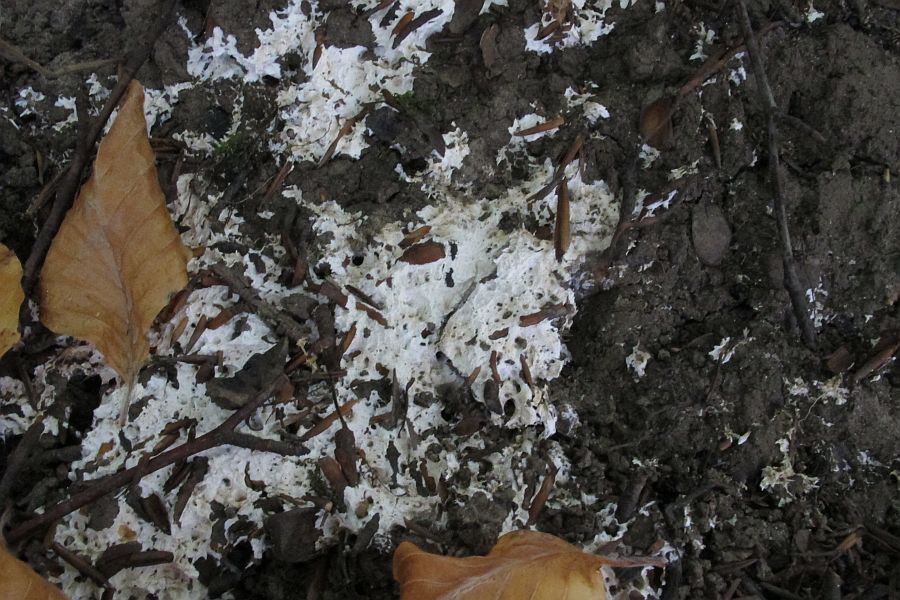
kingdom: Fungi
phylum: Basidiomycota
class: Agaricomycetes
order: Trechisporales
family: Sistotremataceae
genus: Trechispora
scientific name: Trechispora fastidiosa
